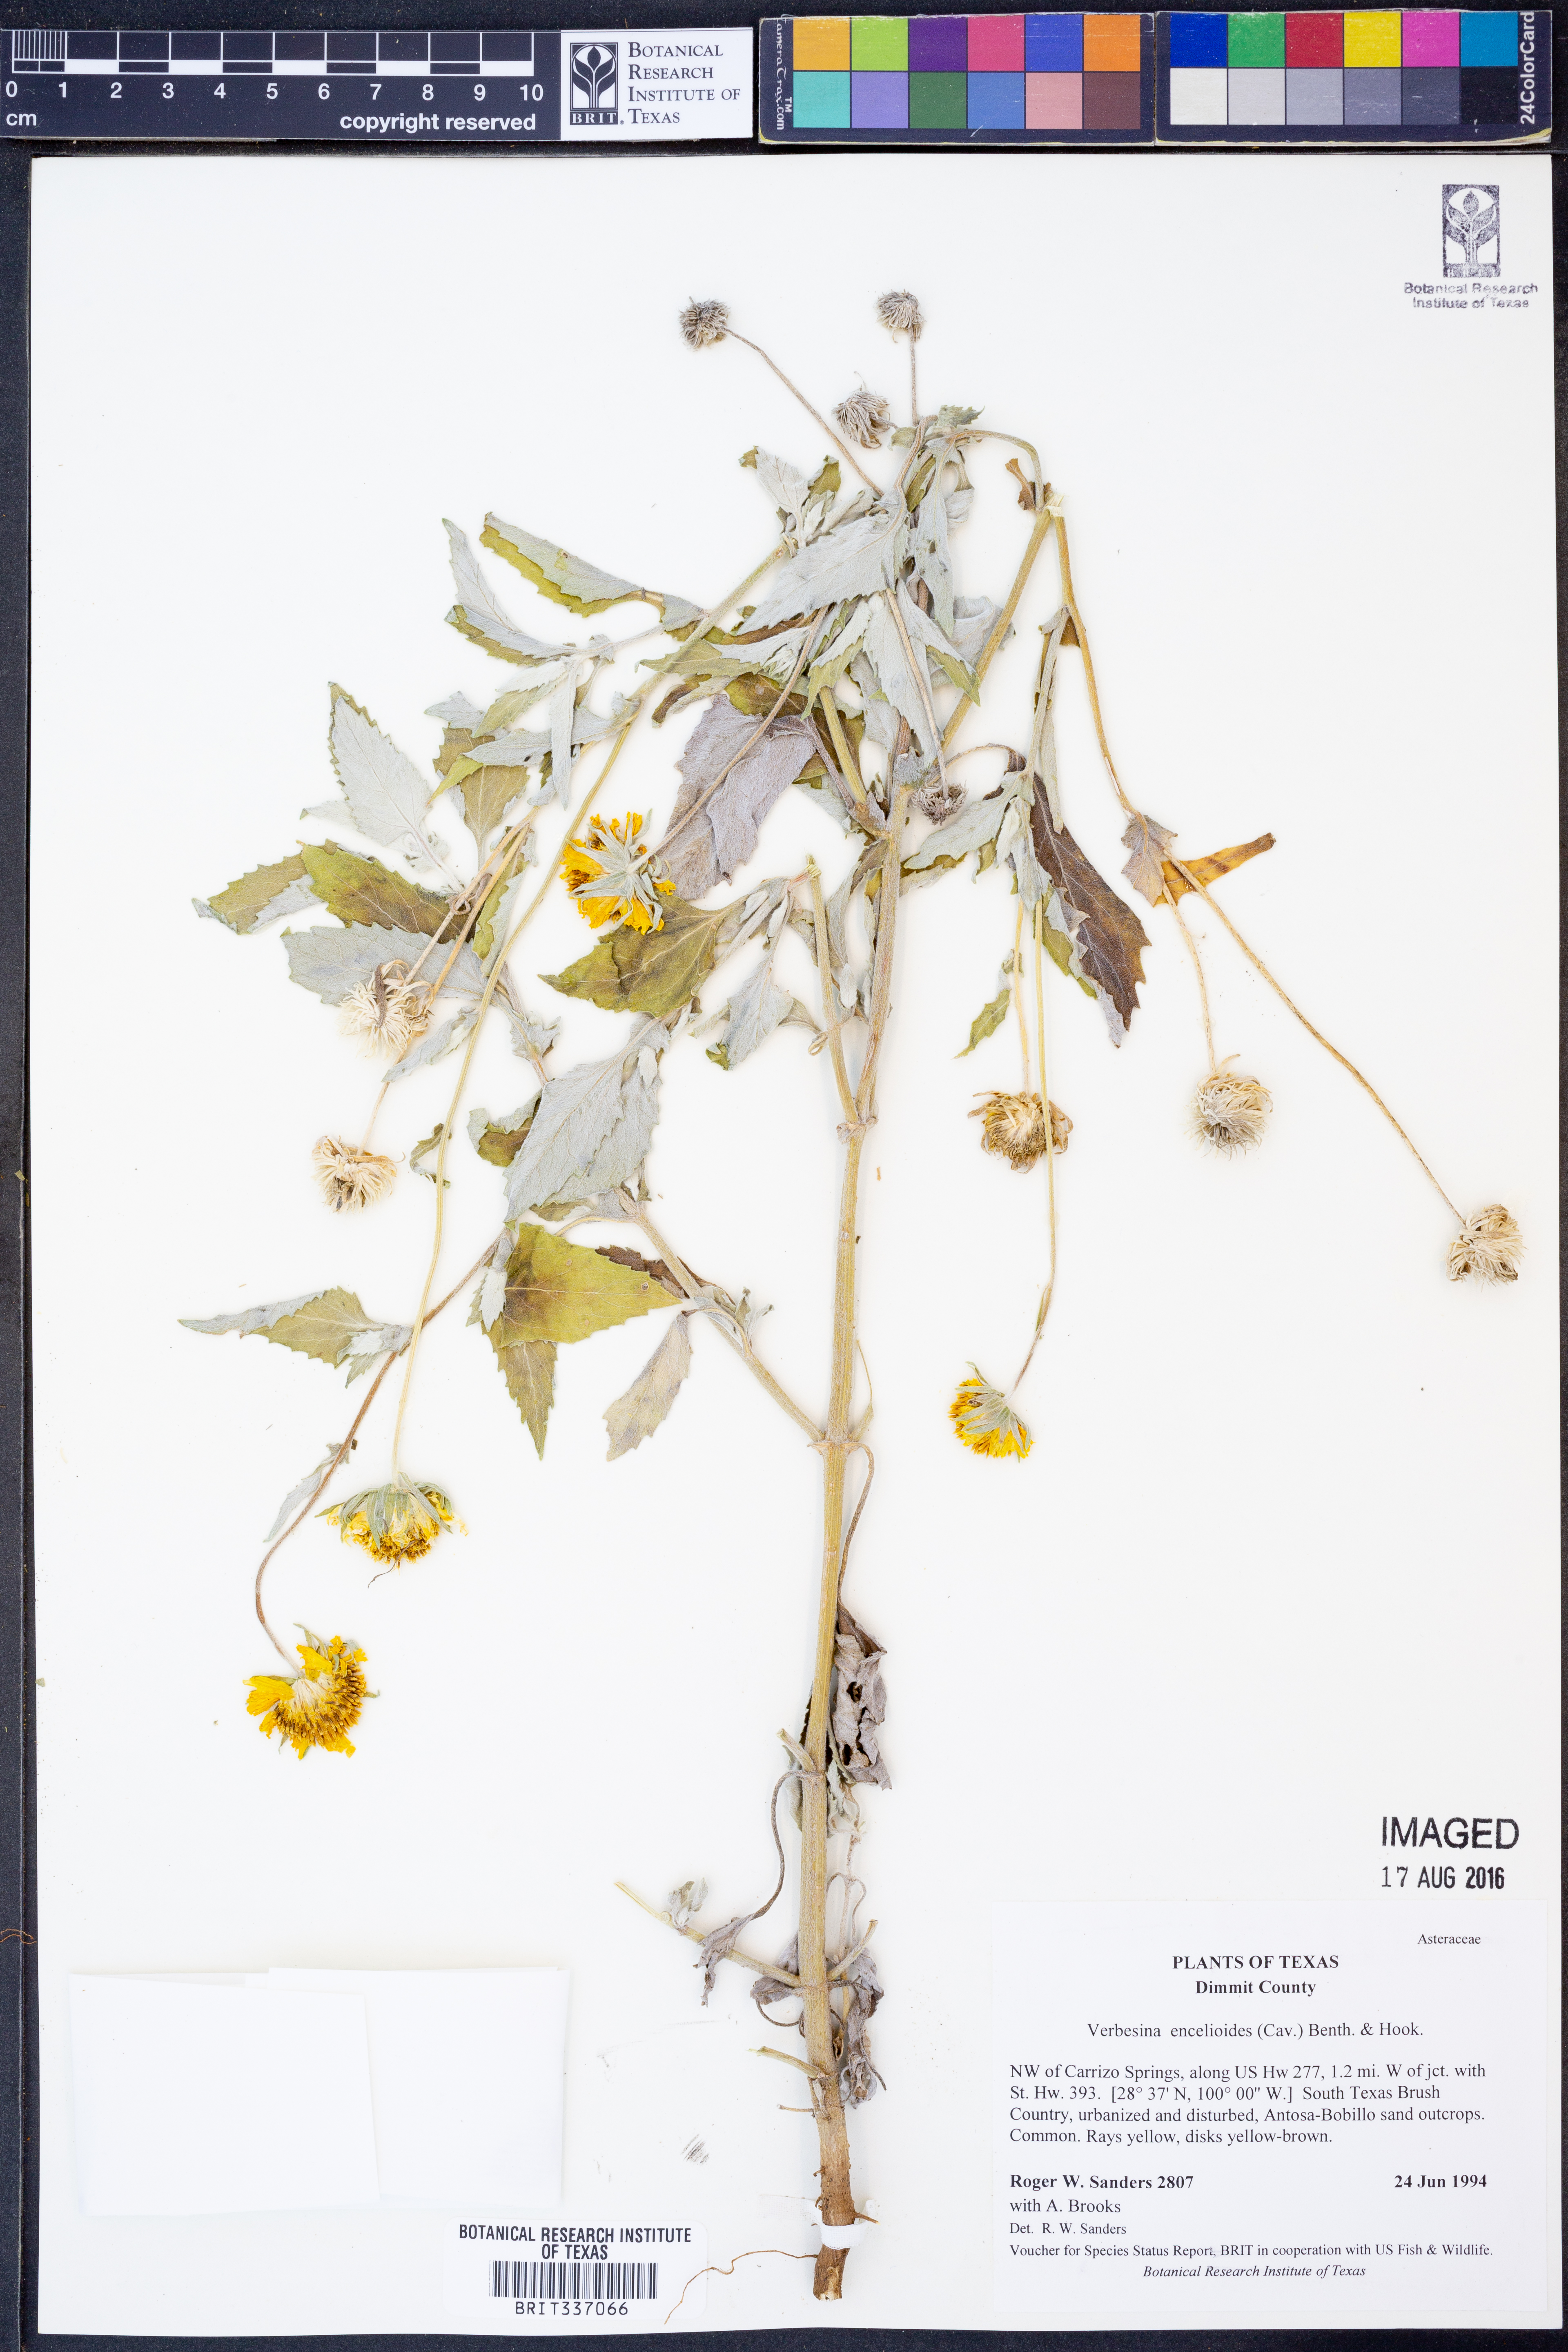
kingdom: Plantae
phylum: Tracheophyta
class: Magnoliopsida
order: Asterales
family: Asteraceae
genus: Verbesina
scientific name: Verbesina encelioides
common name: Golden crownbeard
